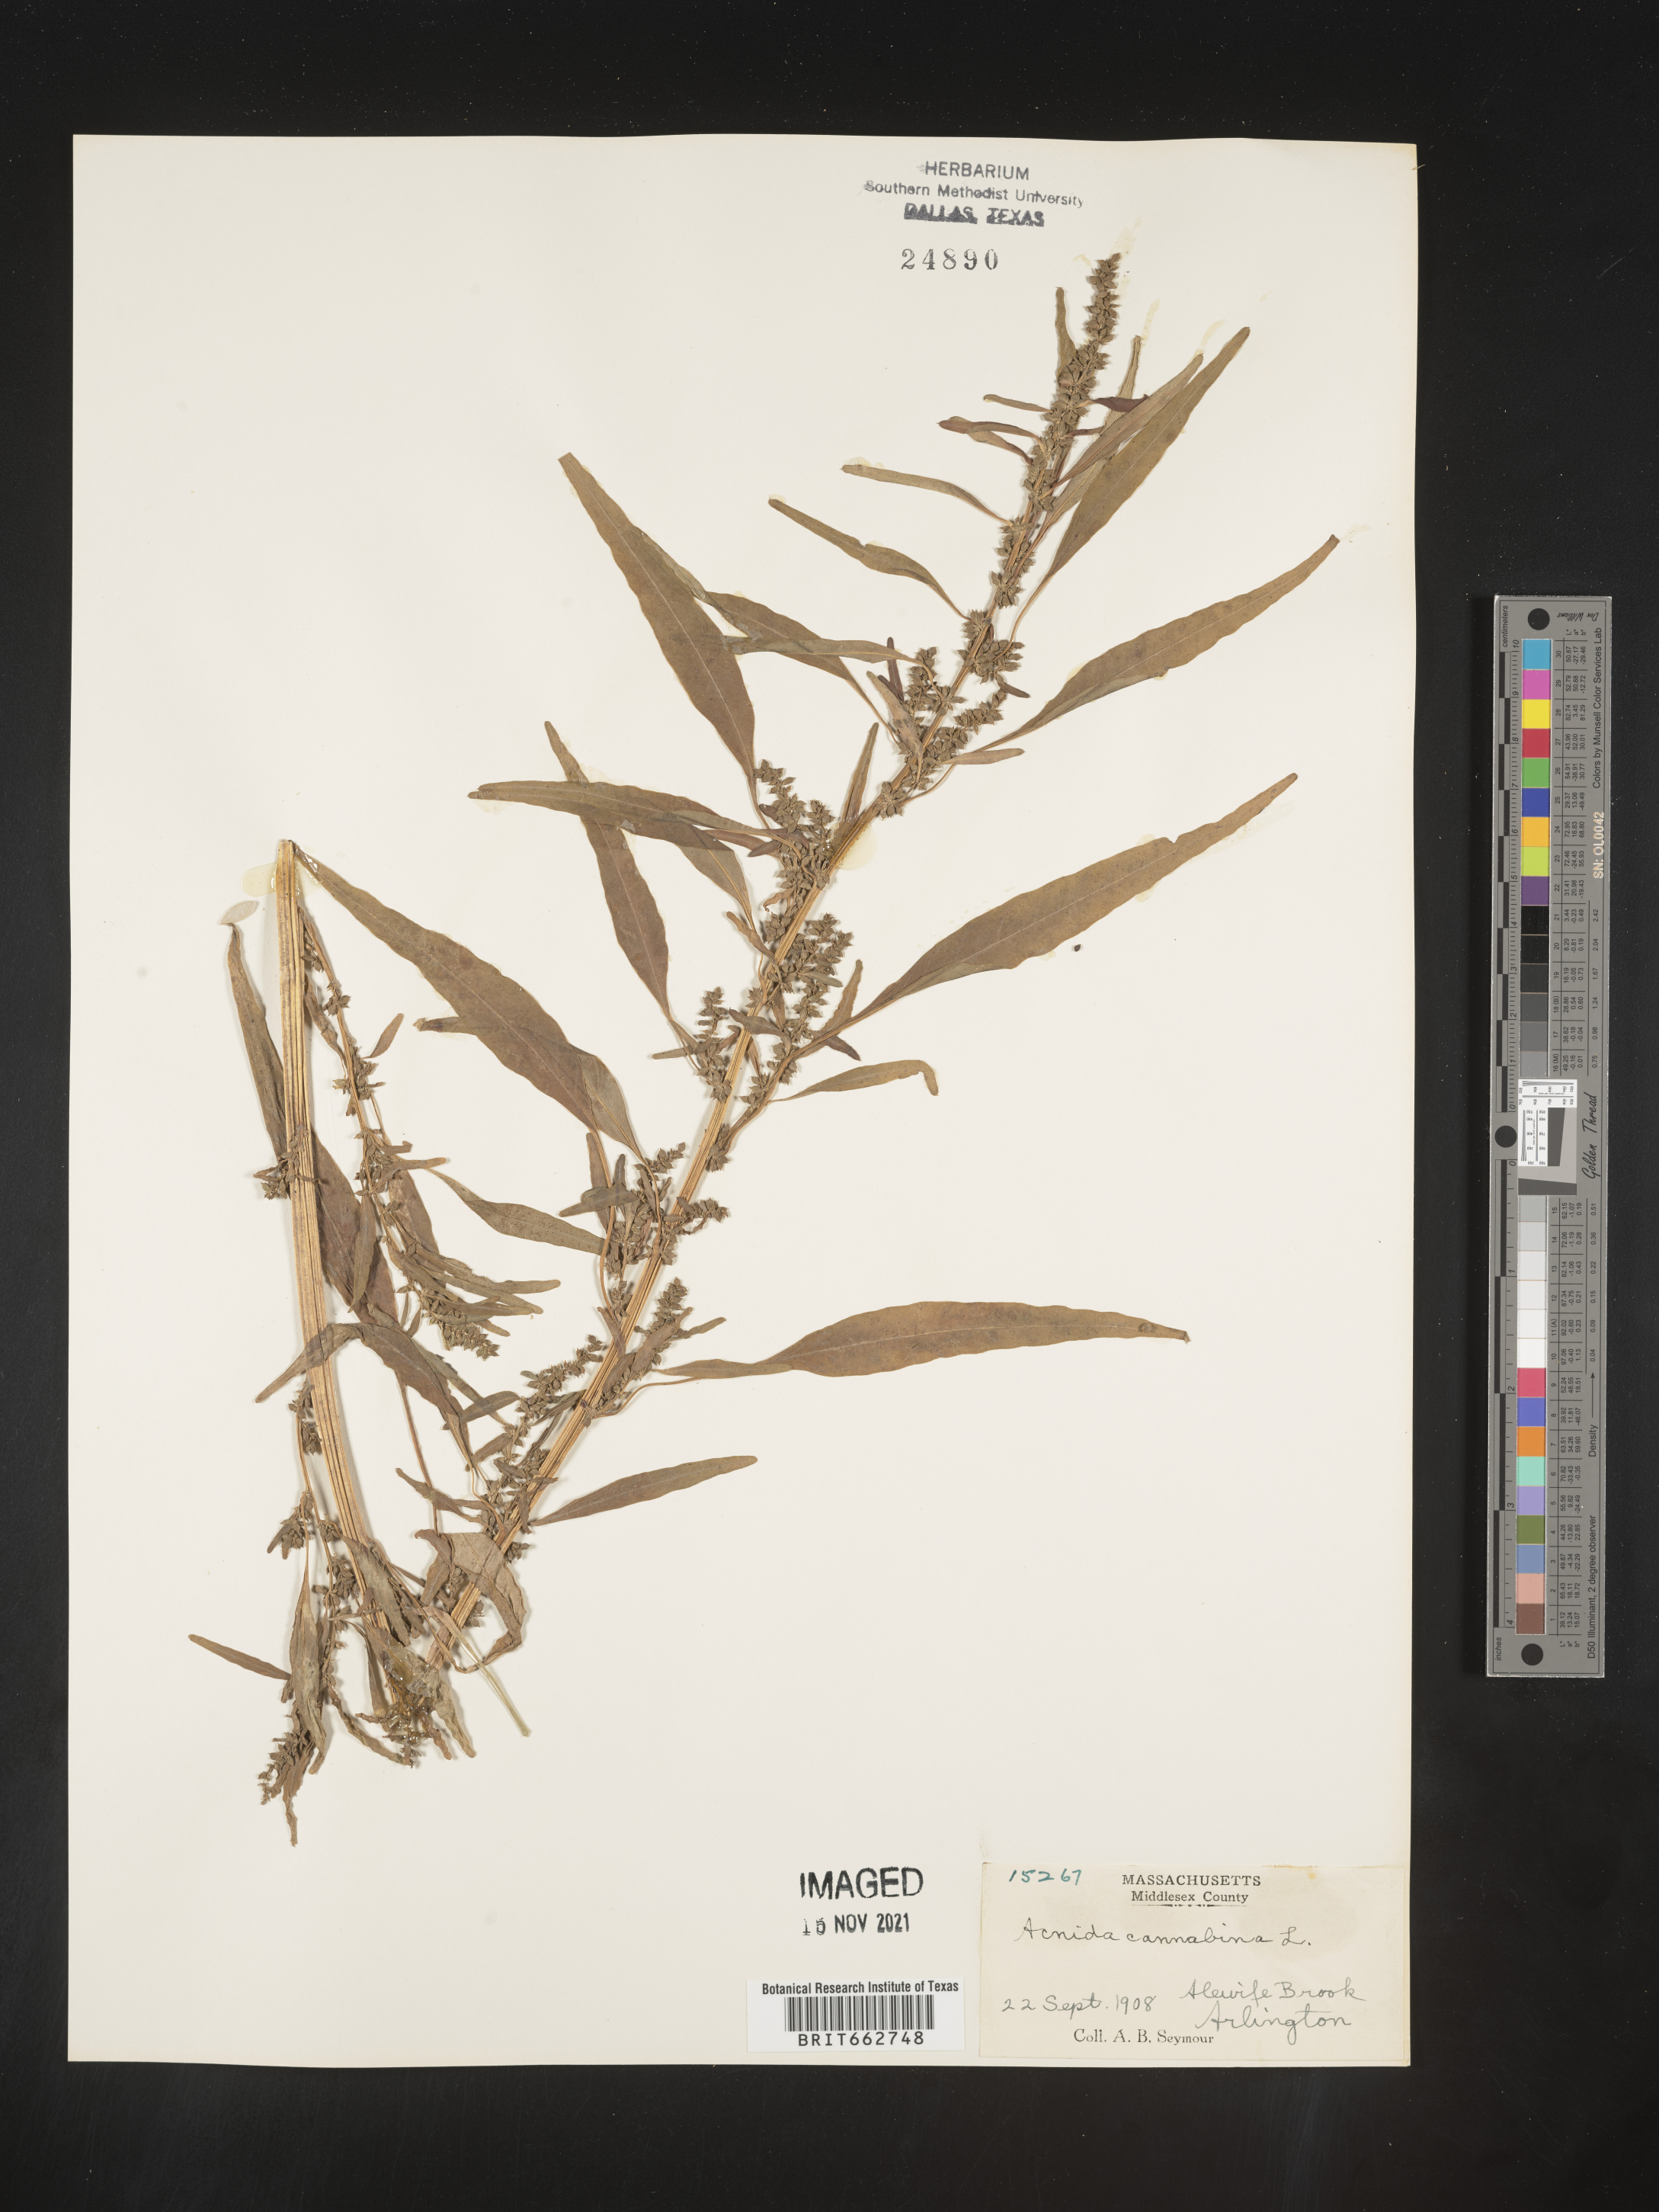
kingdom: Plantae
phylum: Tracheophyta
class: Magnoliopsida
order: Caryophyllales
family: Amaranthaceae
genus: Amaranthus
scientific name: Amaranthus powellii
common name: Powell's amaranth
